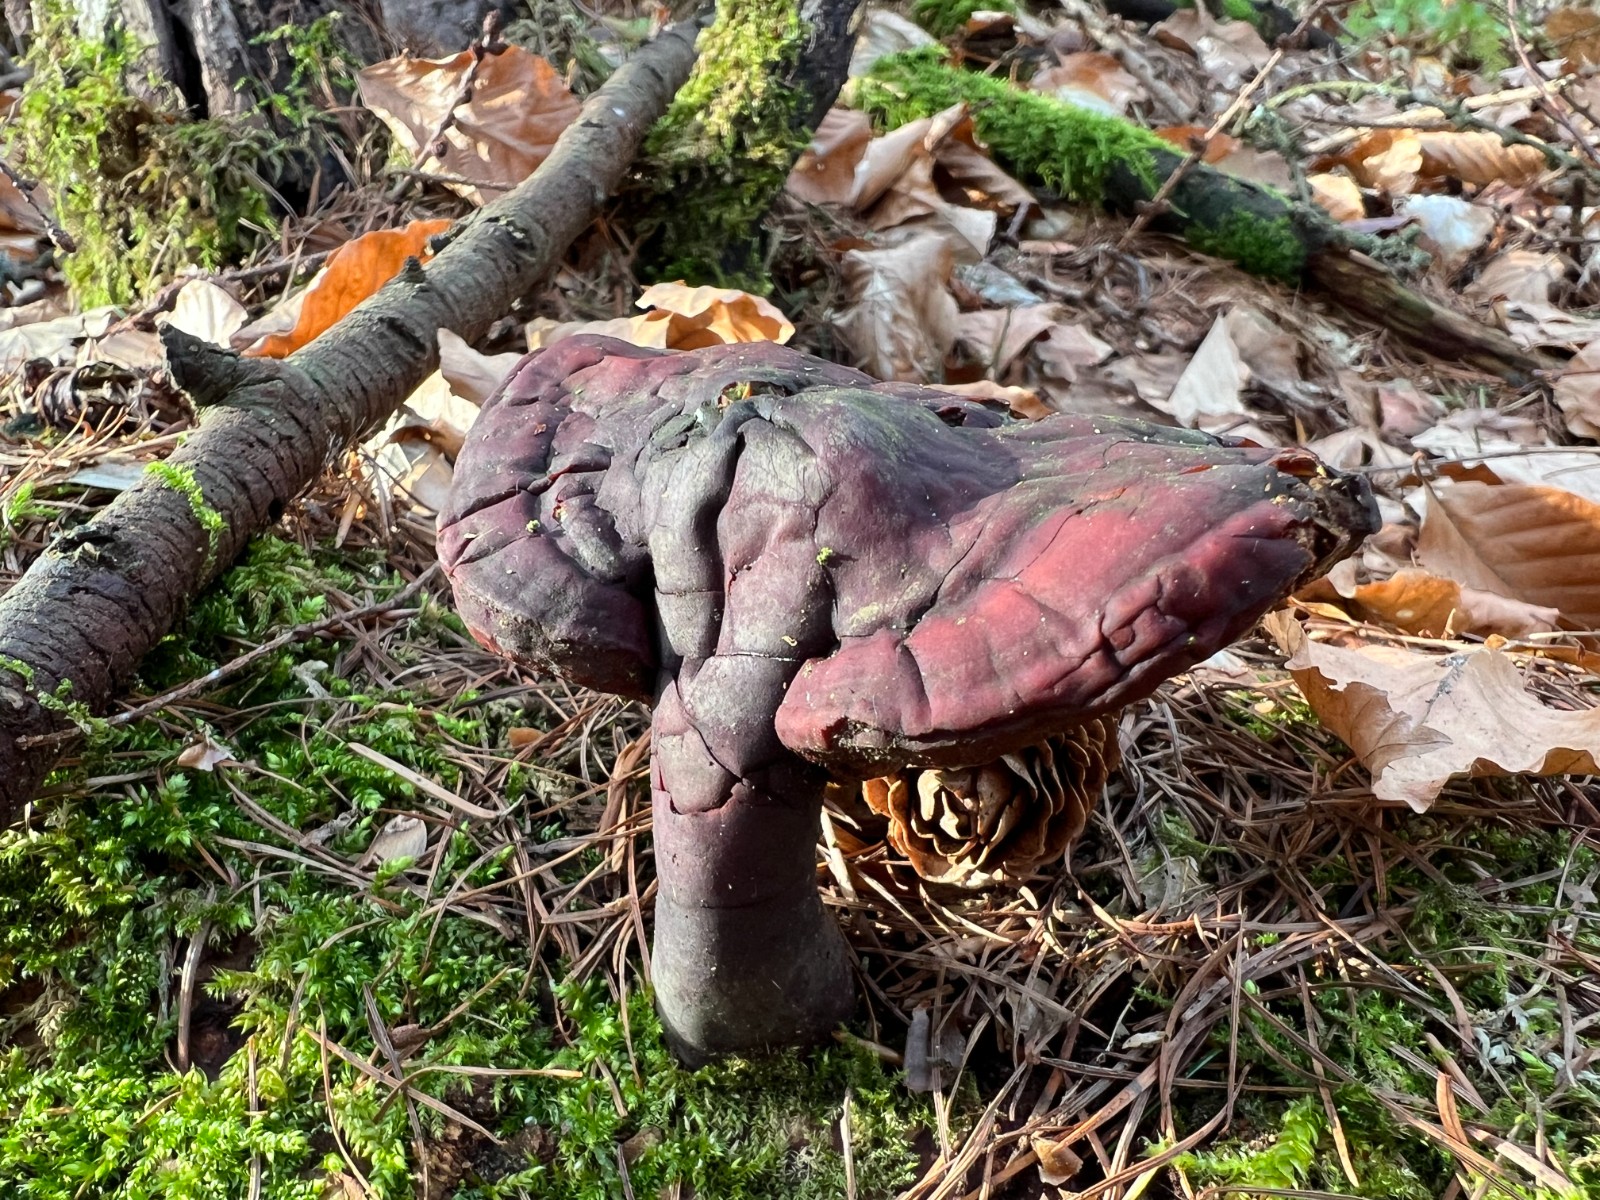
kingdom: Fungi
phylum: Basidiomycota
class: Agaricomycetes
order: Polyporales
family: Polyporaceae
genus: Ganoderma
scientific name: Ganoderma lucidum
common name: skinnende lakporesvamp
